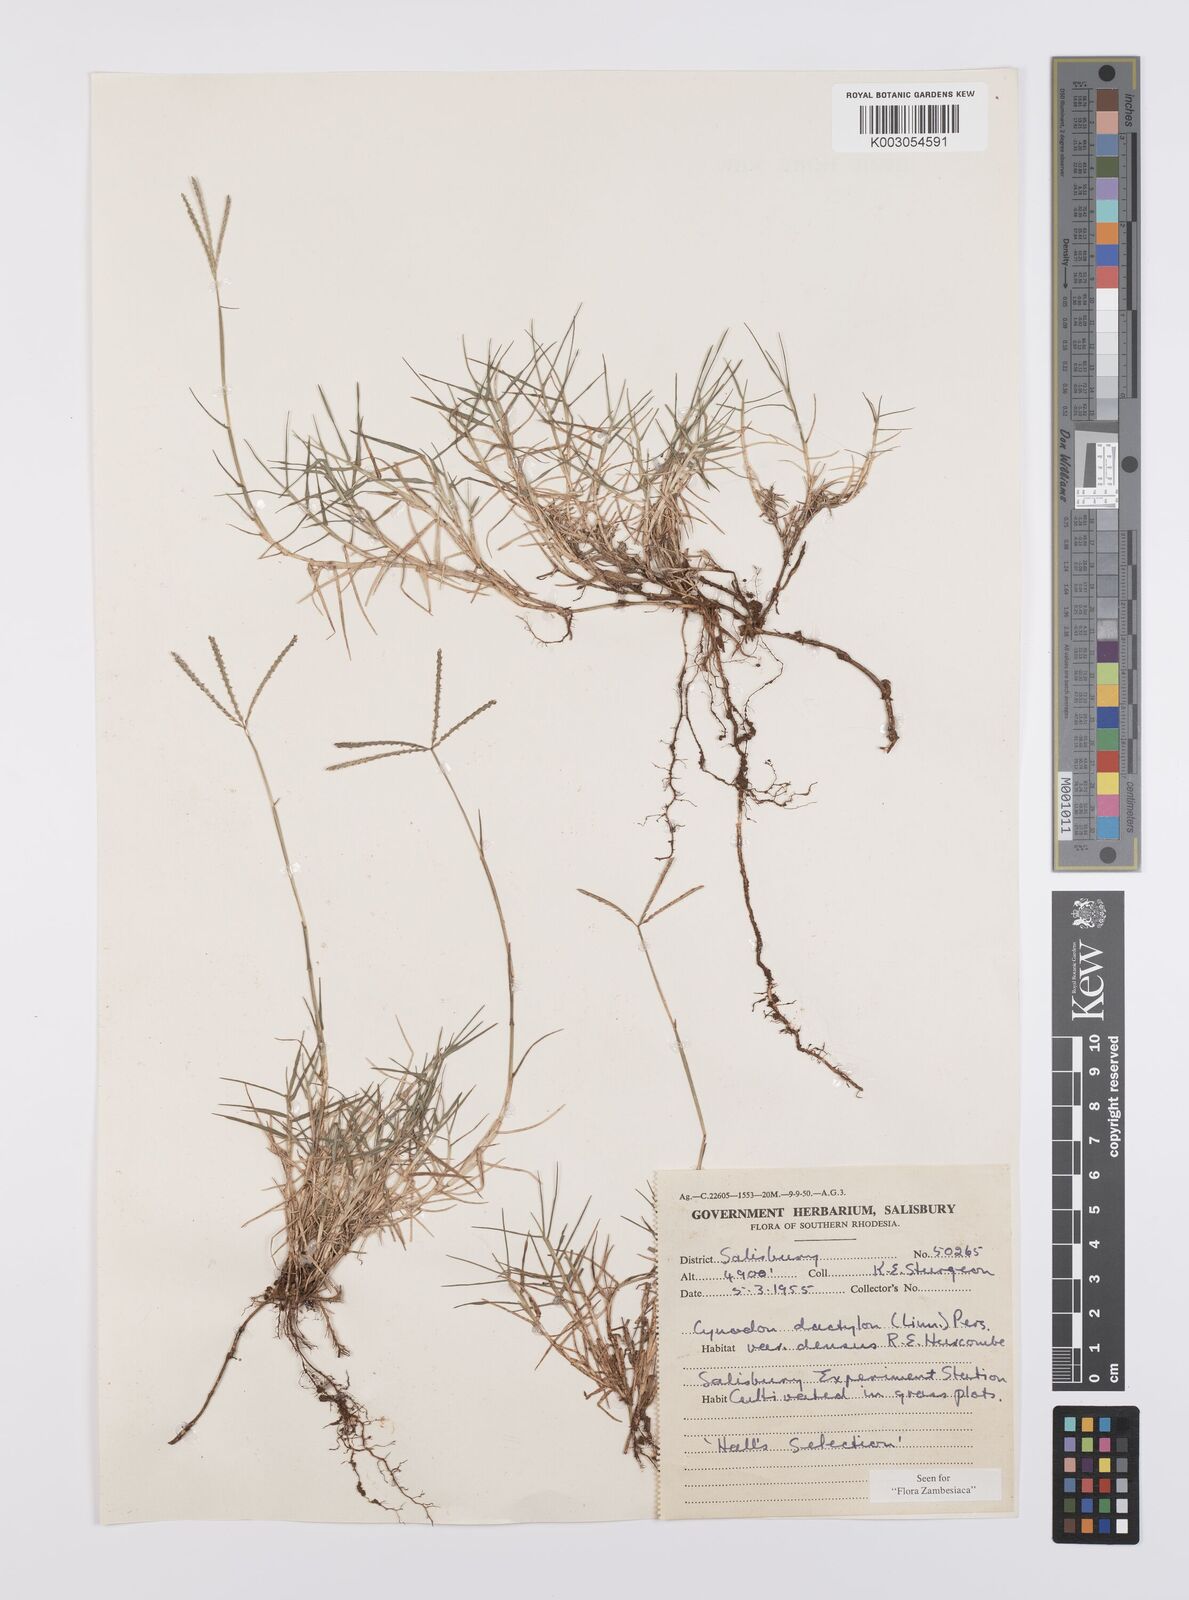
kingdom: Plantae
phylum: Tracheophyta
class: Liliopsida
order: Poales
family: Poaceae
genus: Cynodon
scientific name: Cynodon dactylon
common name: Bermuda grass
